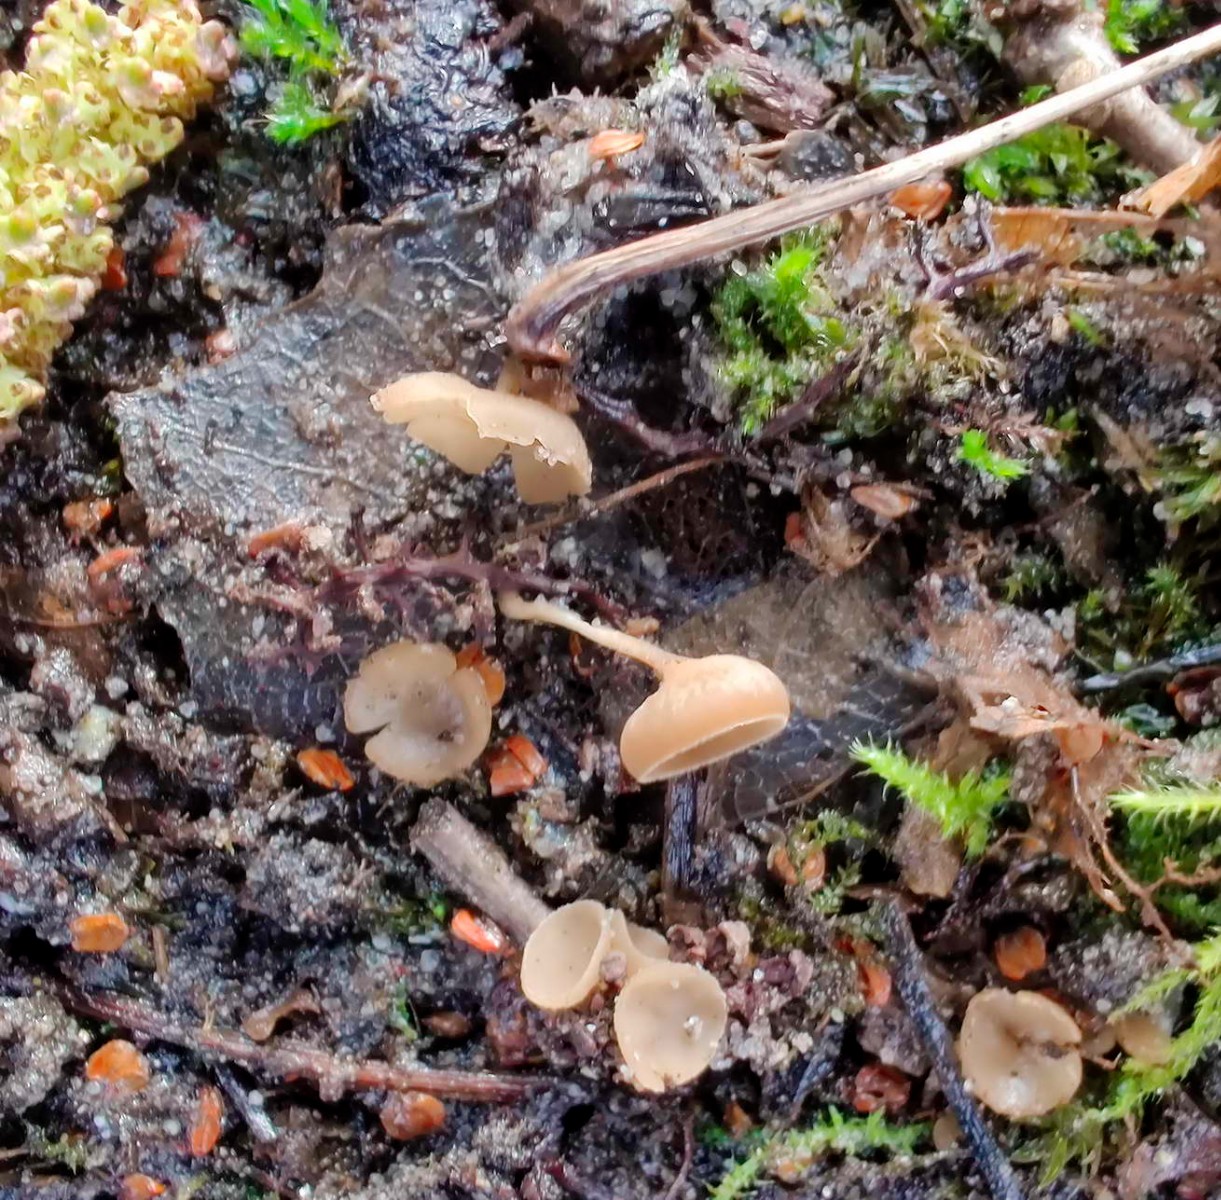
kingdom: Fungi
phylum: Ascomycota
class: Leotiomycetes
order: Helotiales
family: Sclerotiniaceae
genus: Ciboria
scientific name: Ciboria amentacea
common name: ellerakle-knoldskive
